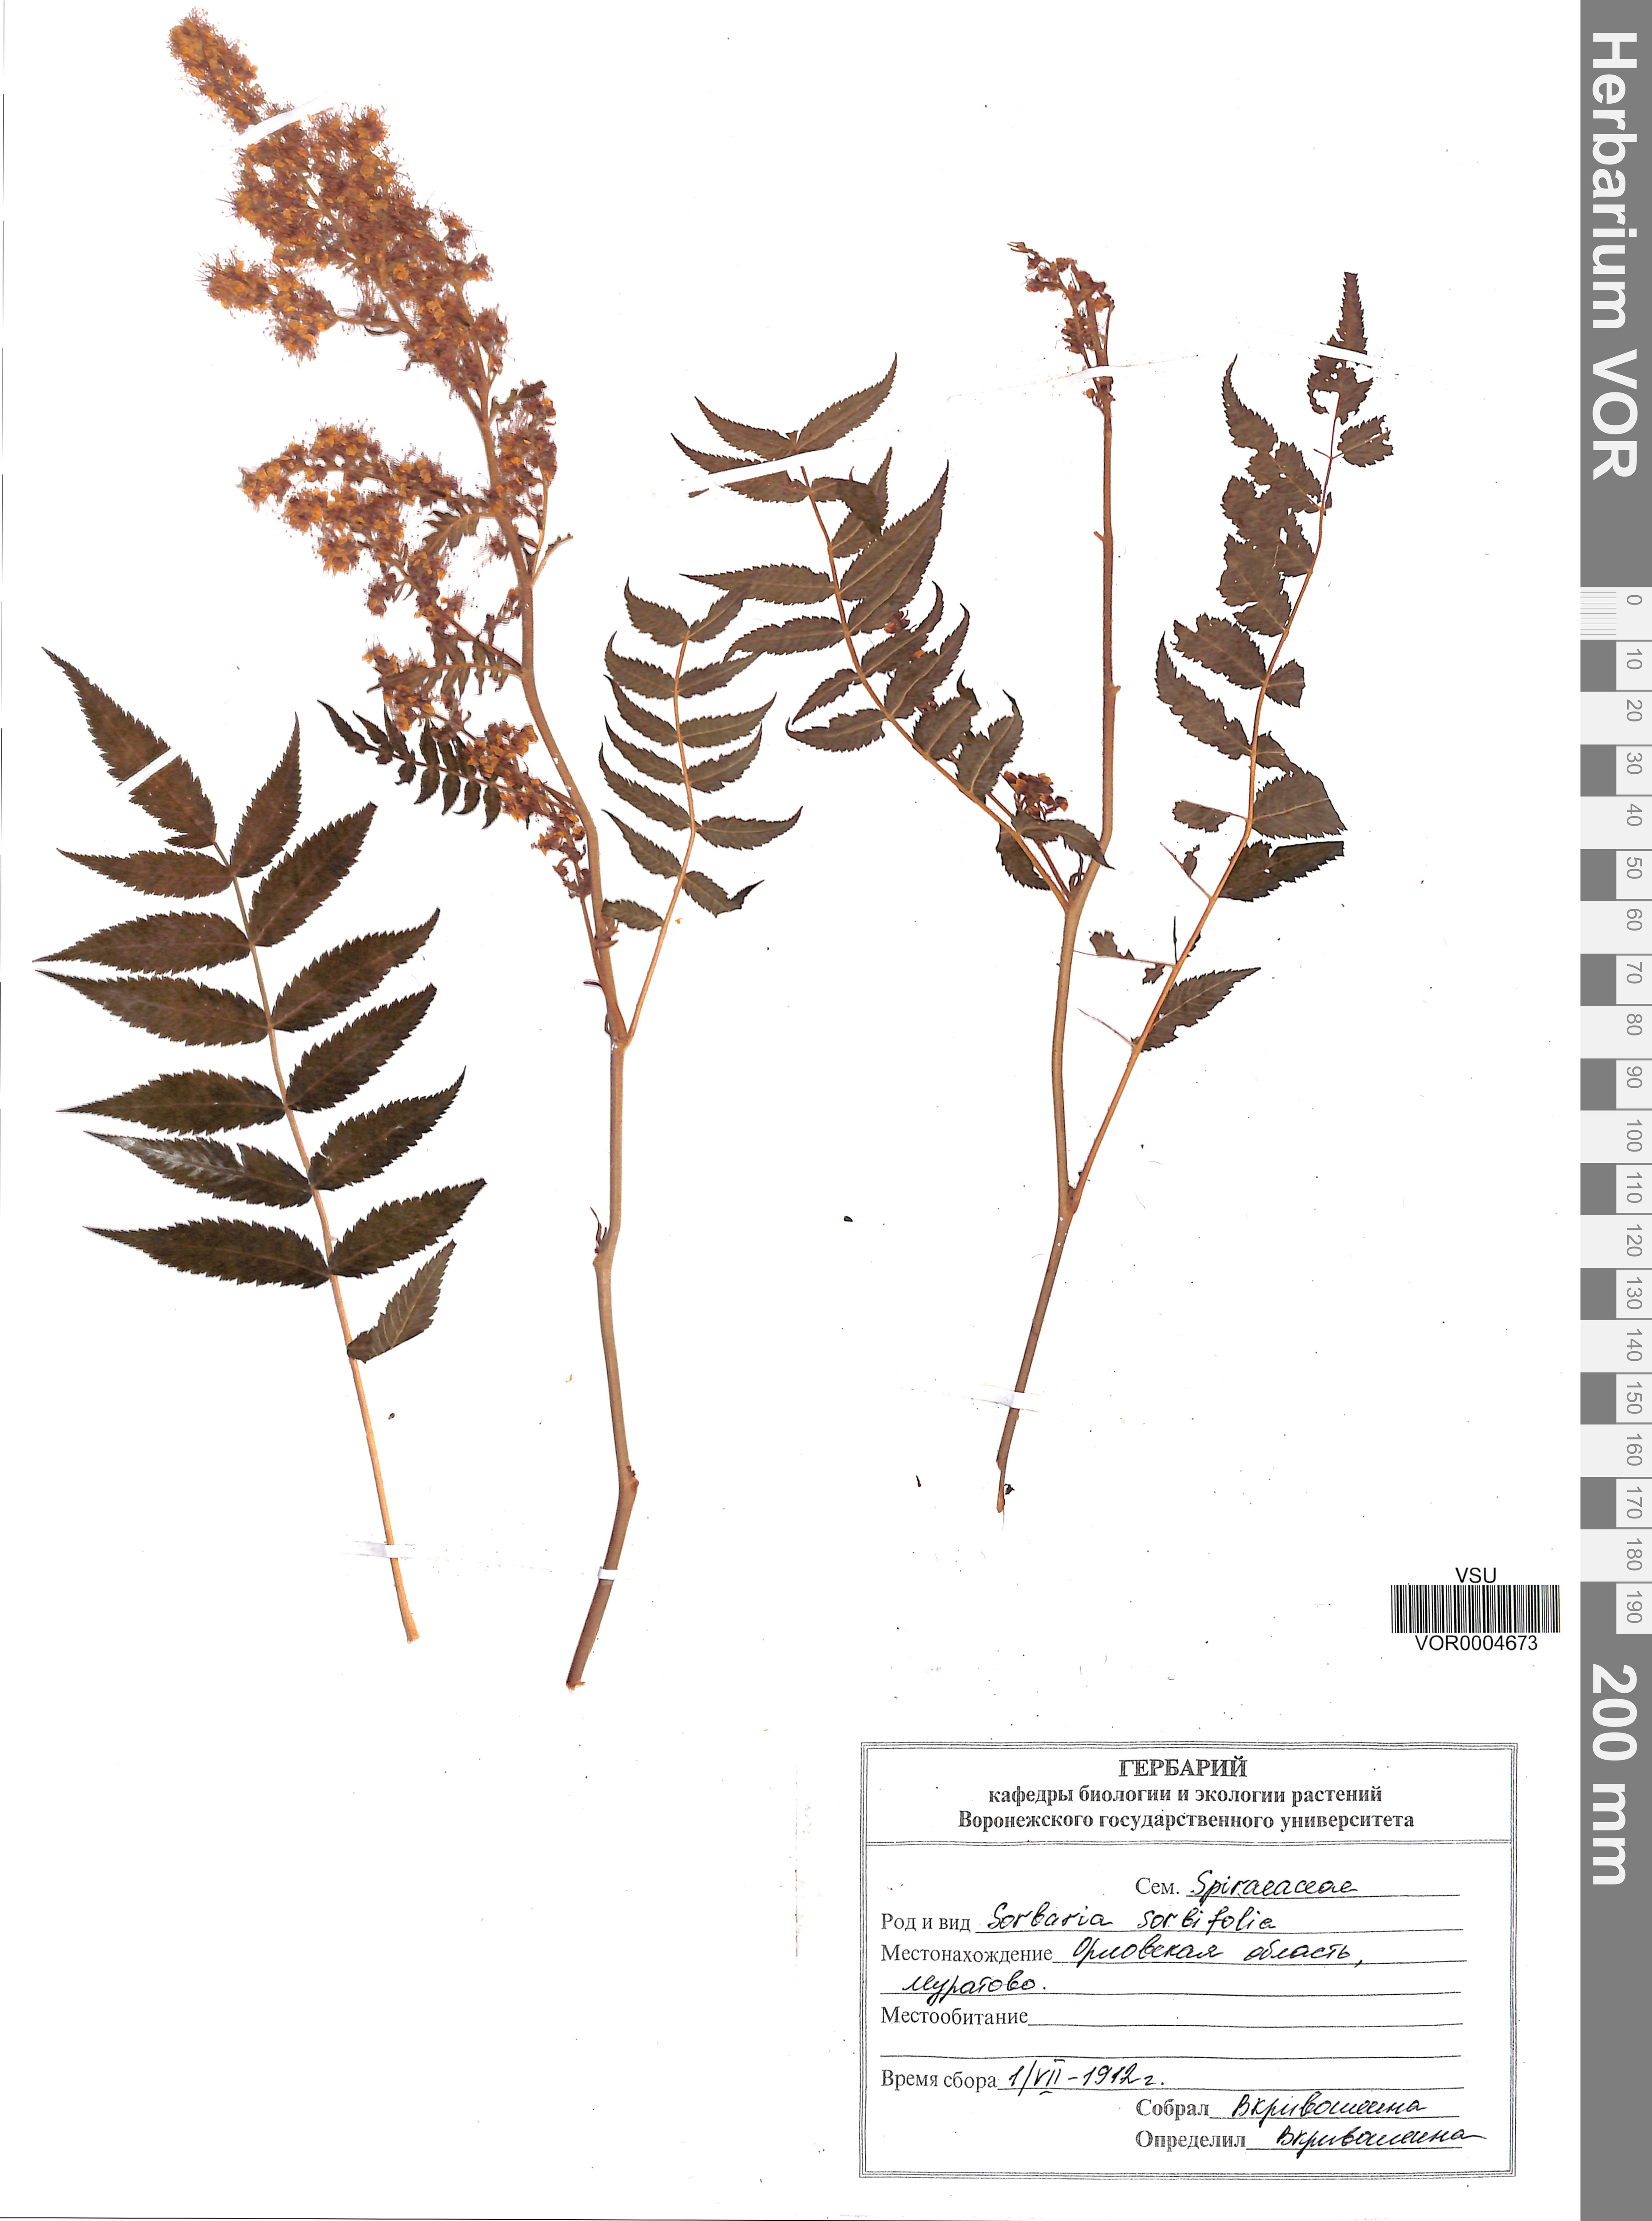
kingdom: Plantae
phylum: Tracheophyta
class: Magnoliopsida
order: Rosales
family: Rosaceae
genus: Sorbaria
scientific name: Sorbaria sorbifolia
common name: False spiraea
